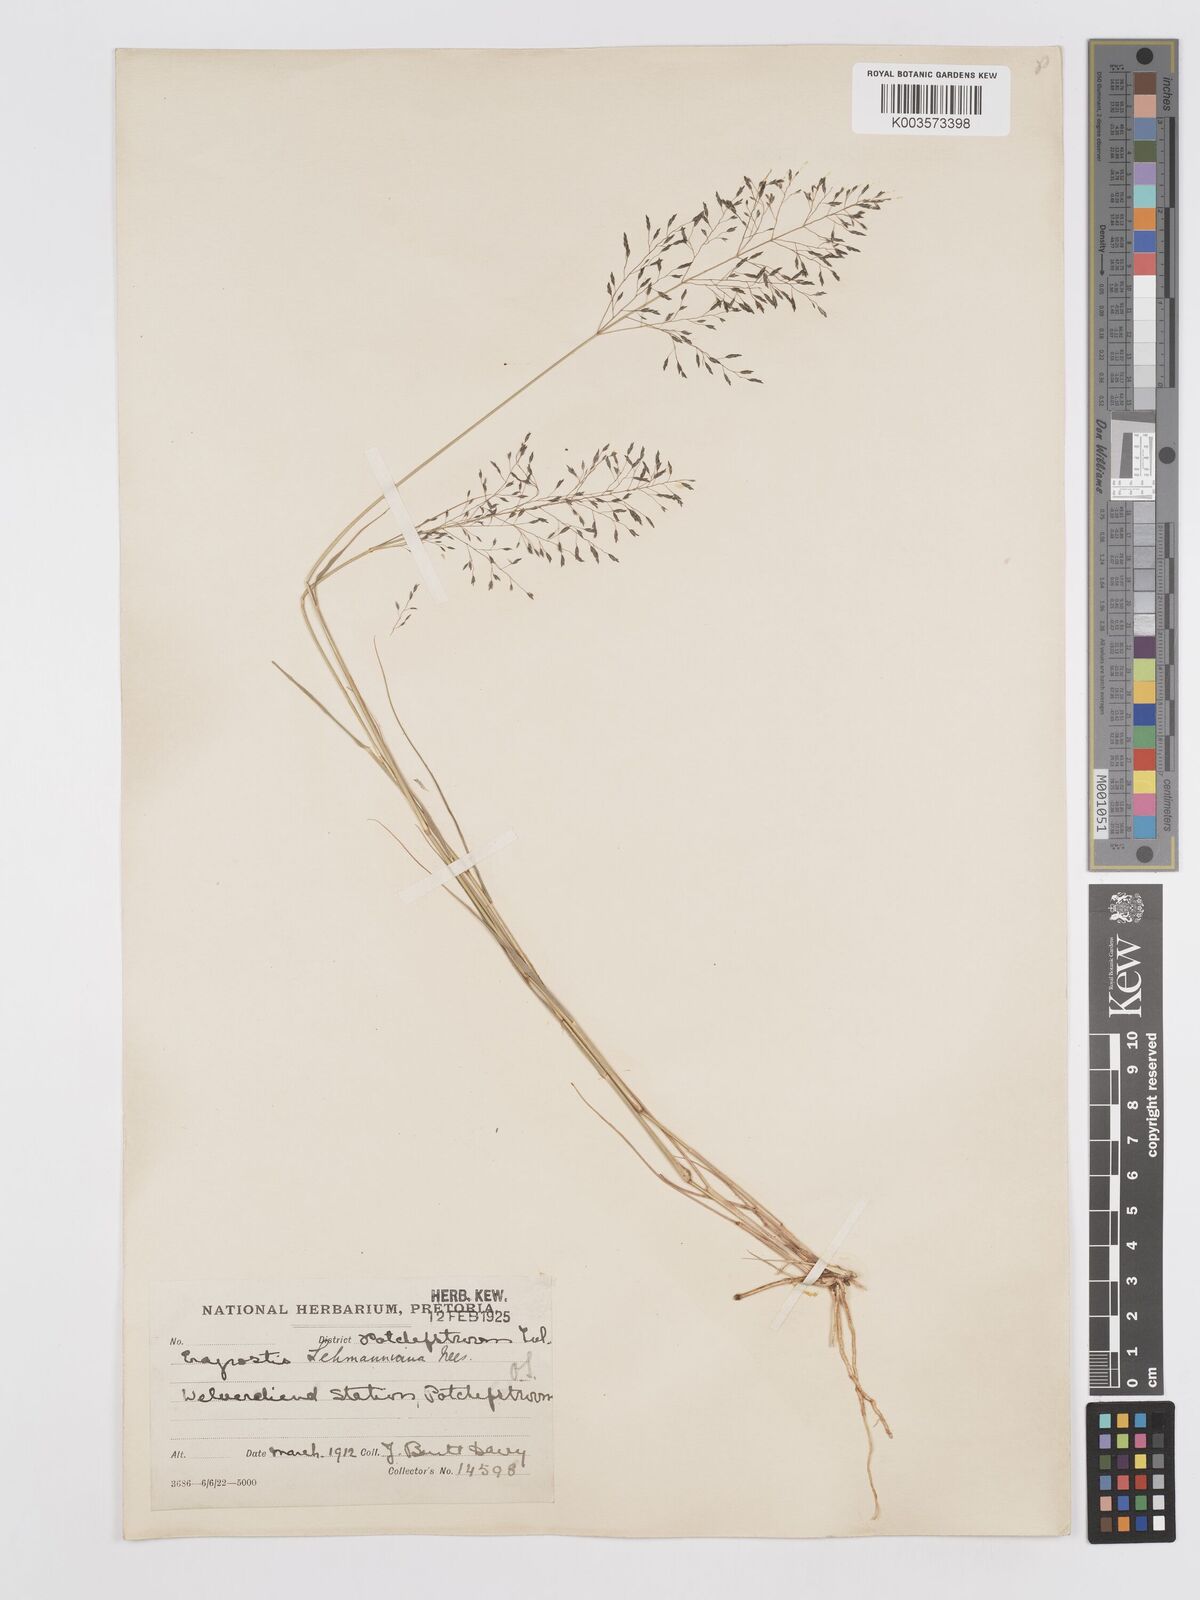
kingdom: Plantae
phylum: Tracheophyta
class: Liliopsida
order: Poales
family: Poaceae
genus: Eragrostis
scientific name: Eragrostis lehmanniana
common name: Lehmann lovegrass
